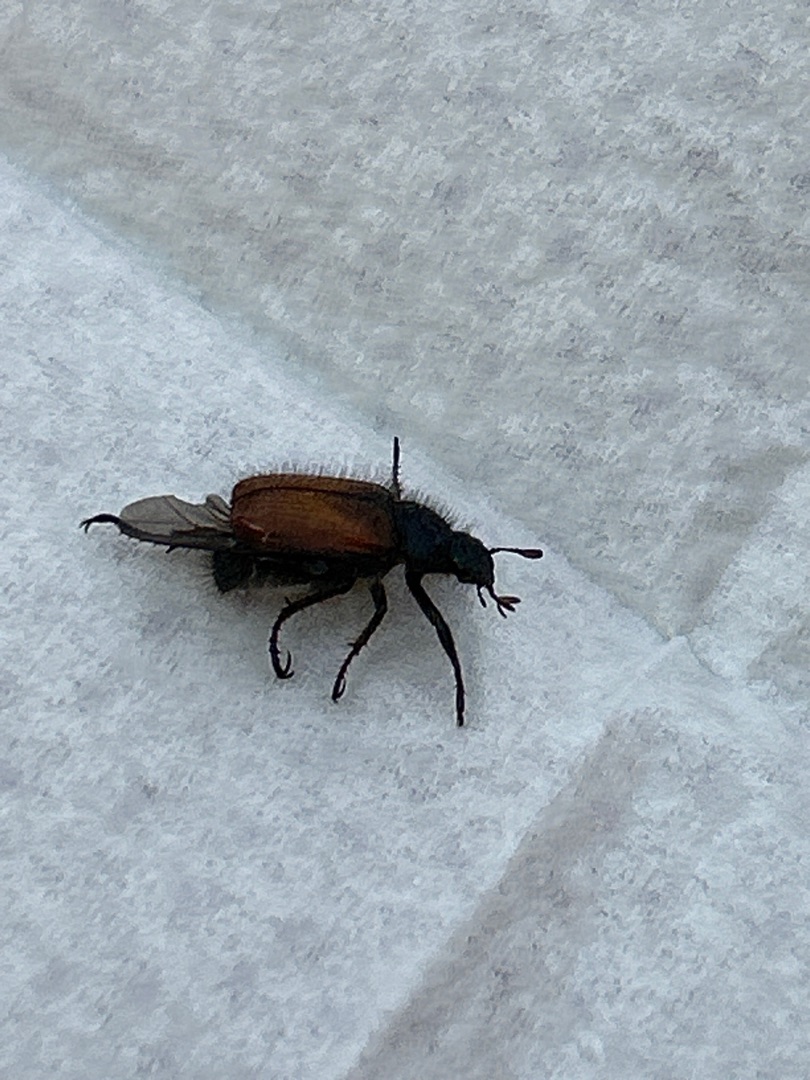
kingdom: Animalia
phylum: Arthropoda
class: Insecta
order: Coleoptera
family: Scarabaeidae
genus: Phyllopertha
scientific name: Phyllopertha horticola
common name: Gåsebille
